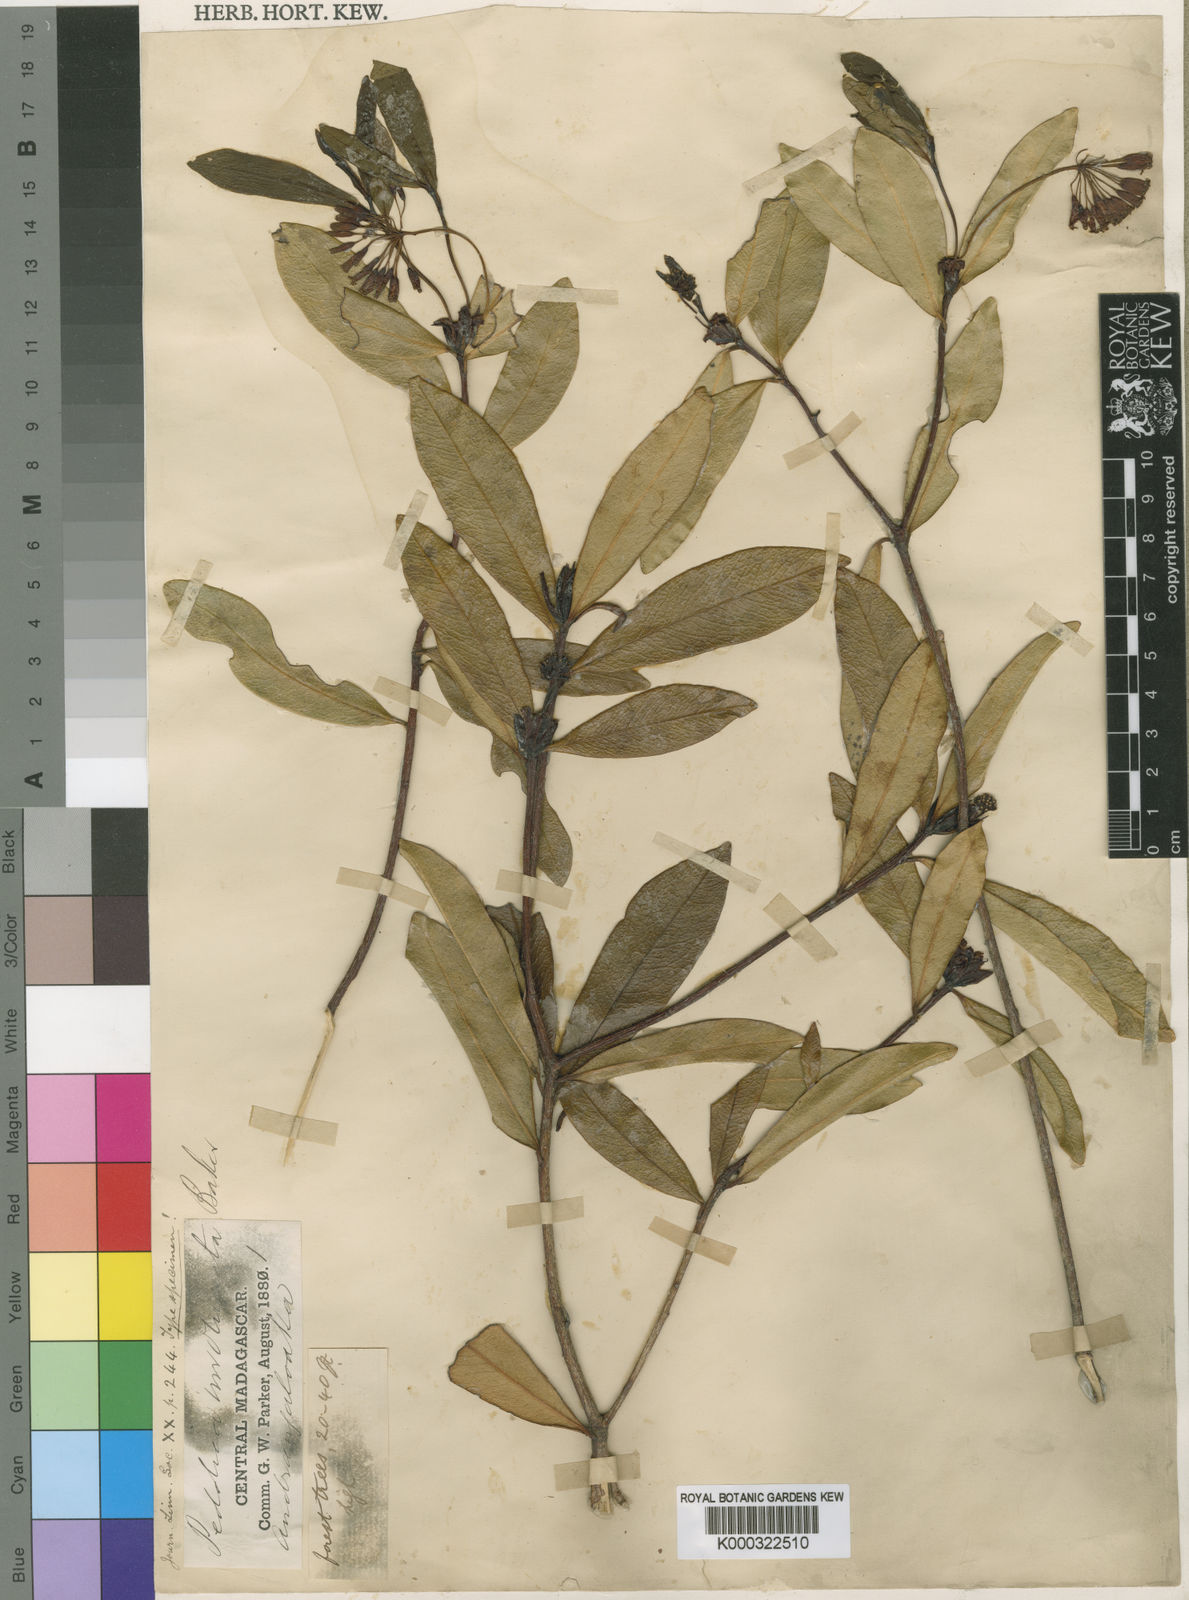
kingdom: Plantae
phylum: Tracheophyta
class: Magnoliopsida
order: Malvales
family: Thymelaeaceae
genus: Peddiea
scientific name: Peddiea involucrata
